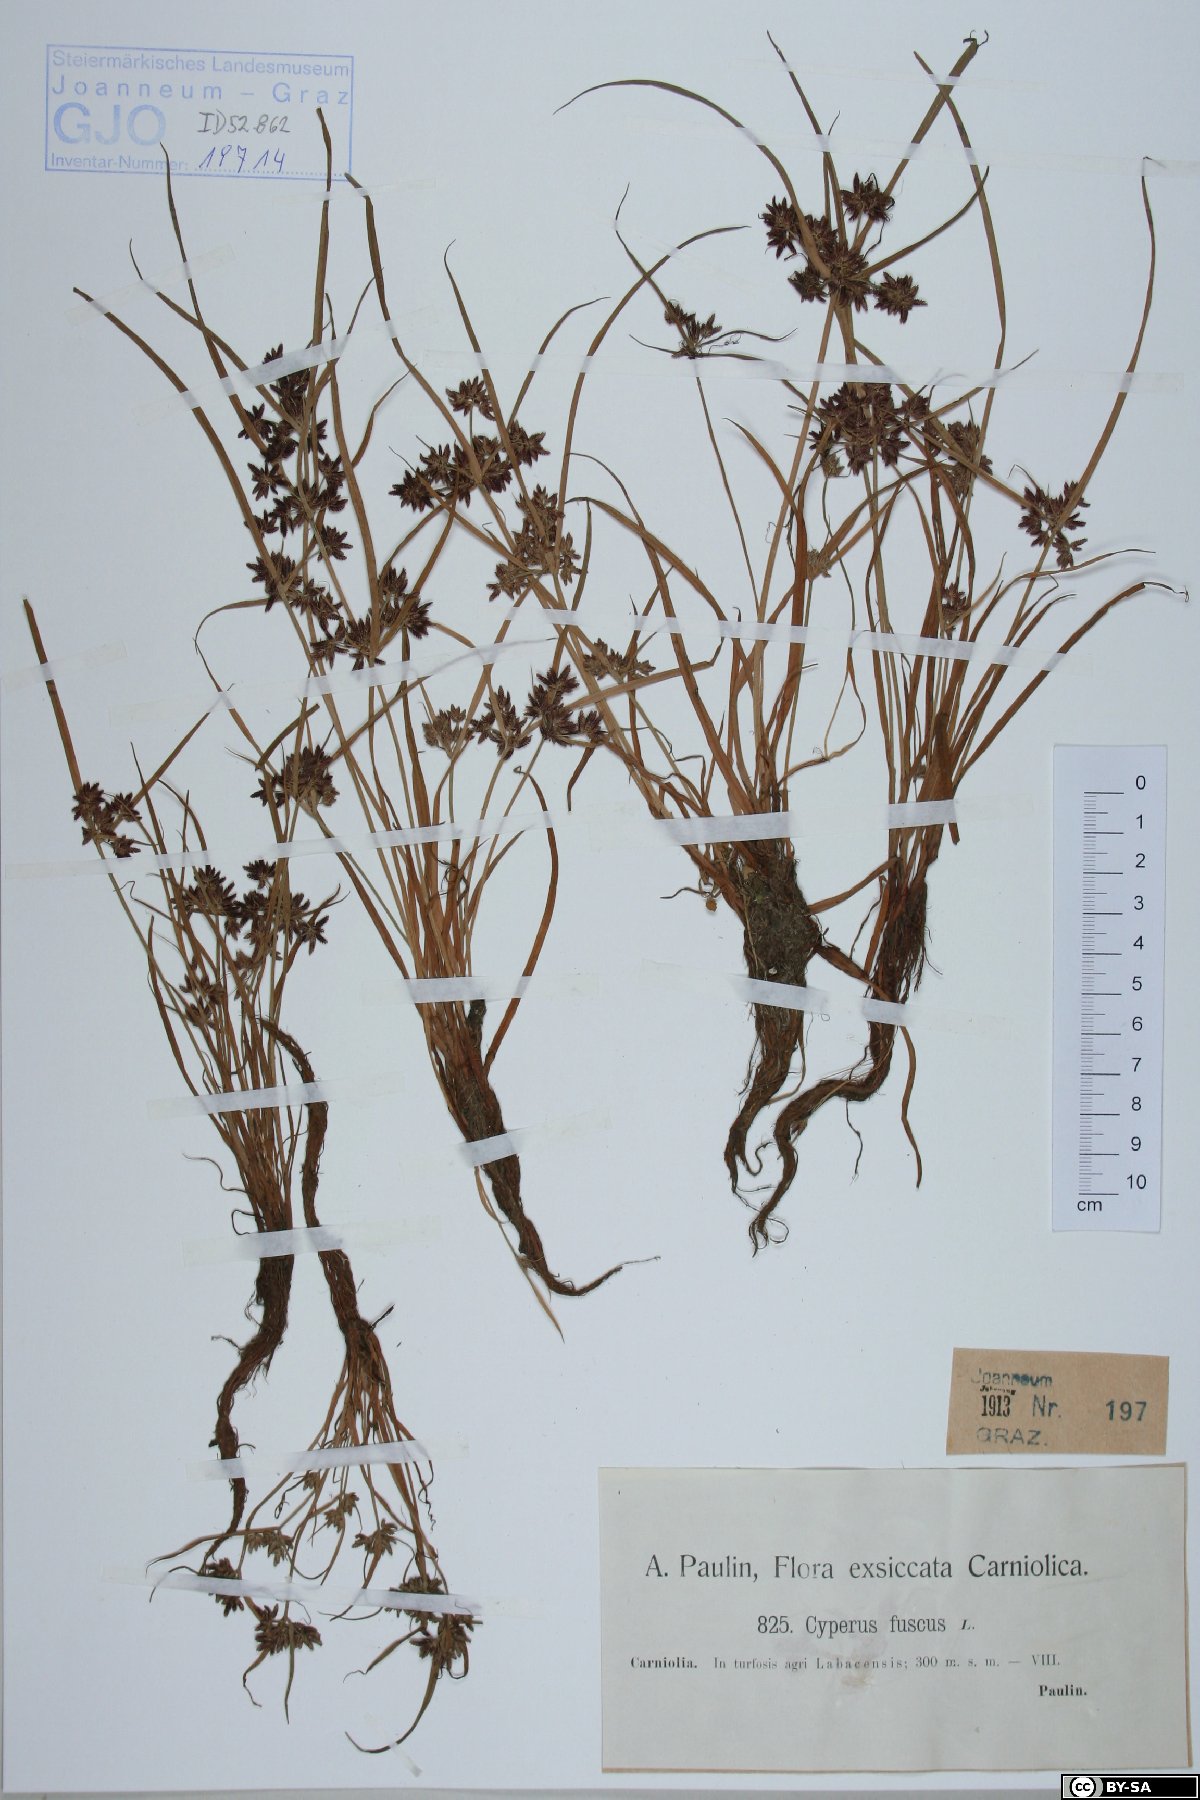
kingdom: Plantae
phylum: Tracheophyta
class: Liliopsida
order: Poales
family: Cyperaceae
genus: Cyperus
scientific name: Cyperus fuscus
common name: Brown galingale
